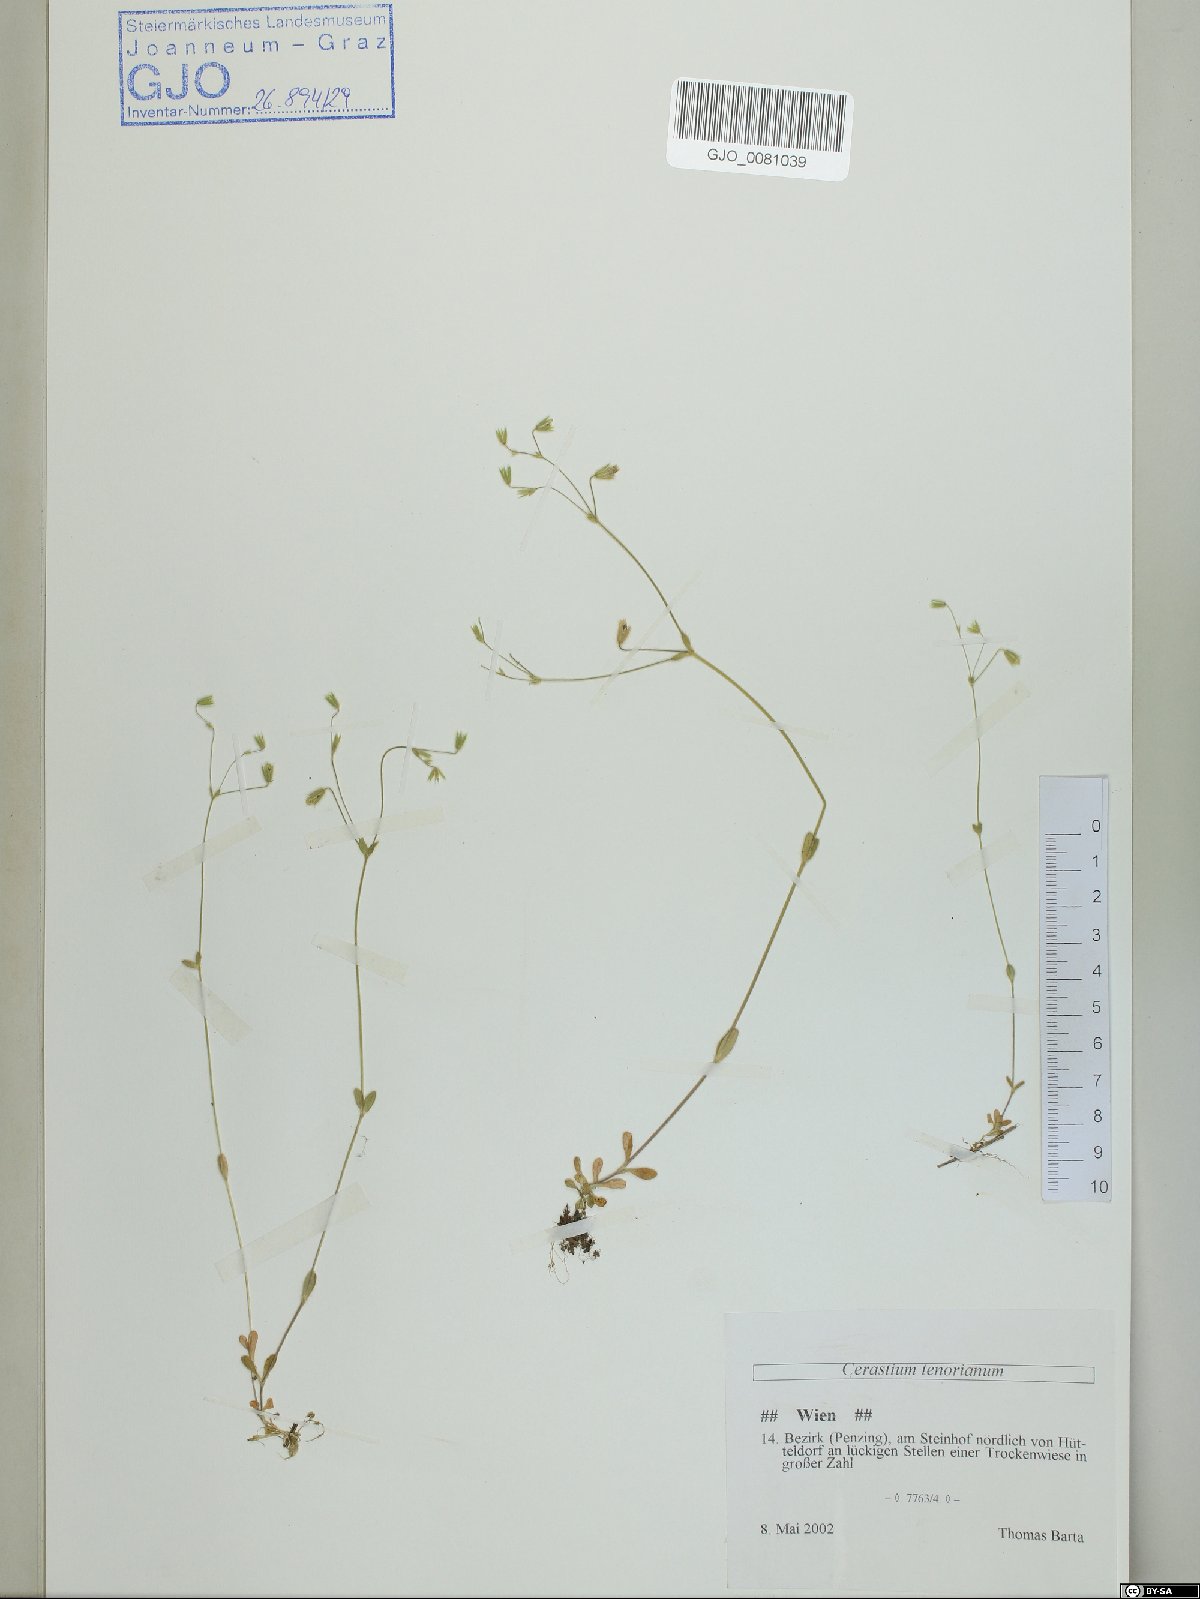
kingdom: Plantae
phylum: Tracheophyta
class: Magnoliopsida
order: Caryophyllales
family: Caryophyllaceae
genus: Cerastium
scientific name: Cerastium tenoreanum
